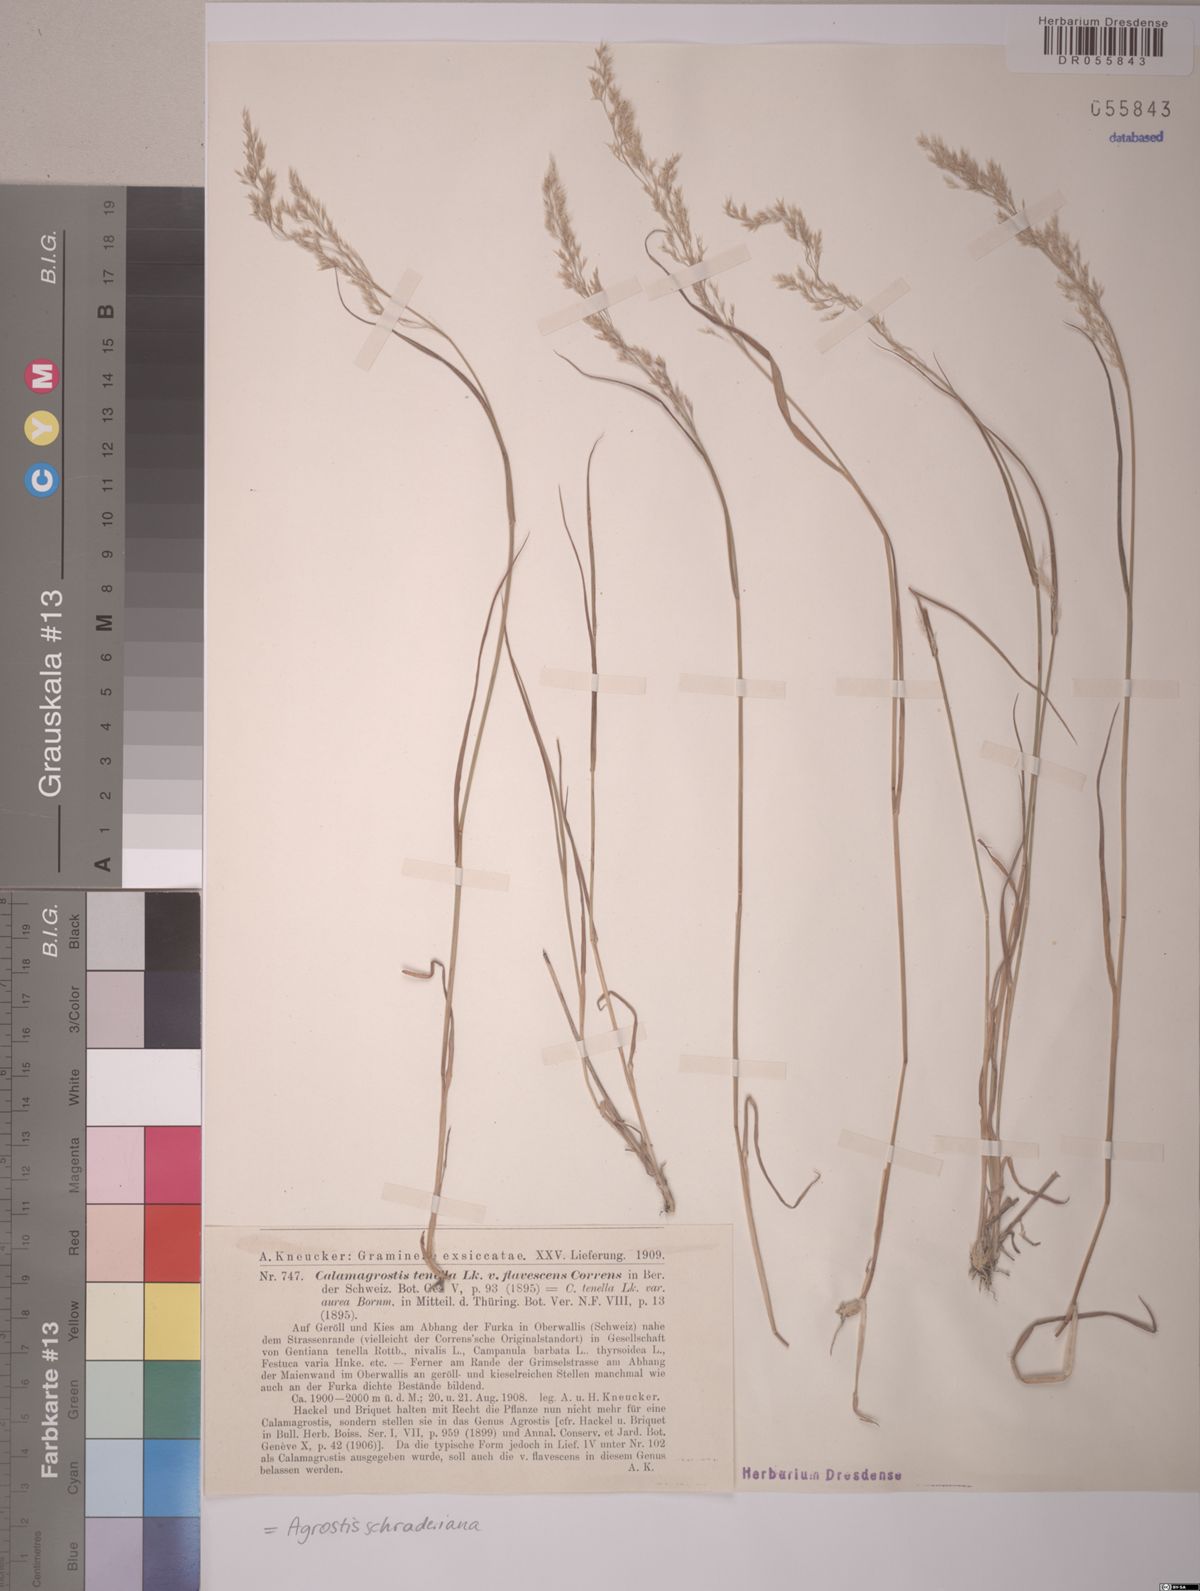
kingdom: Plantae
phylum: Tracheophyta
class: Liliopsida
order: Poales
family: Poaceae
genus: Agrostis
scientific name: Agrostis schraderiana
